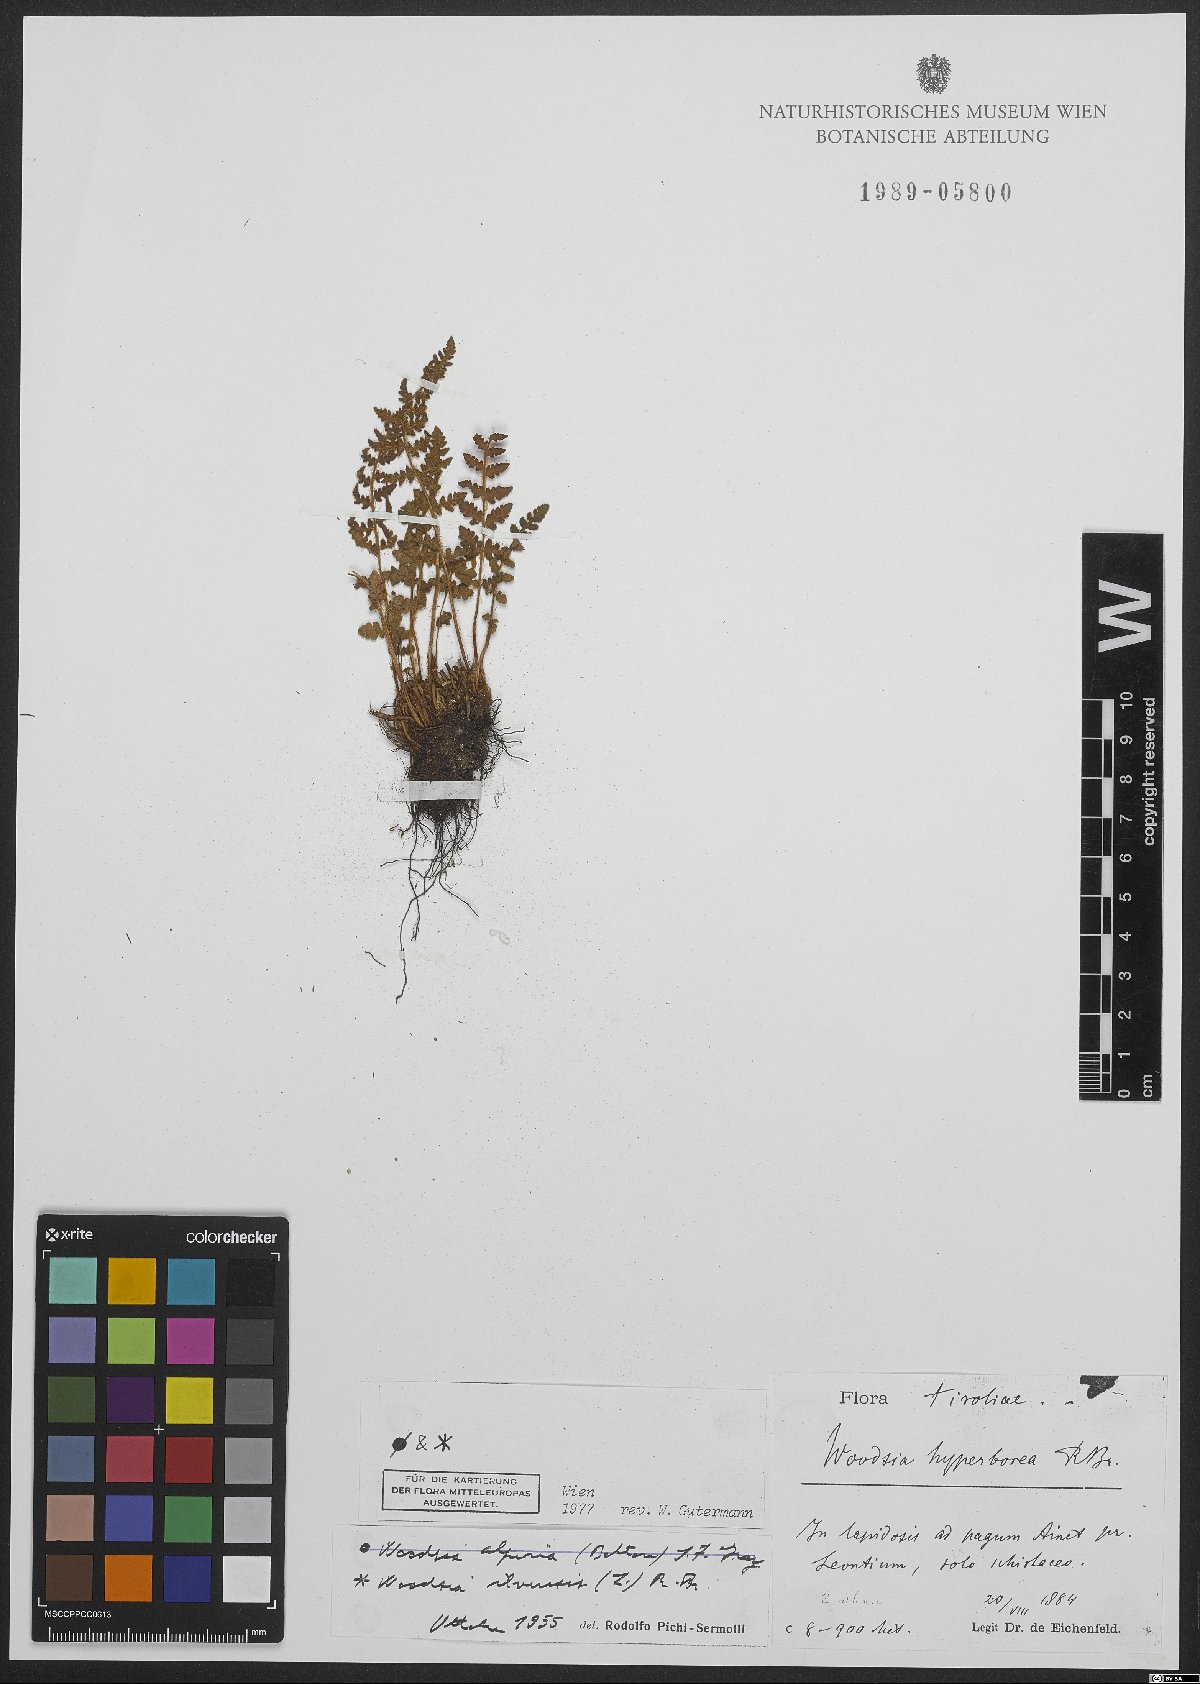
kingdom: Plantae
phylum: Tracheophyta
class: Polypodiopsida
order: Polypodiales
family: Woodsiaceae
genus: Woodsia
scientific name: Woodsia ilvensis
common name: Fragrant woodsia
